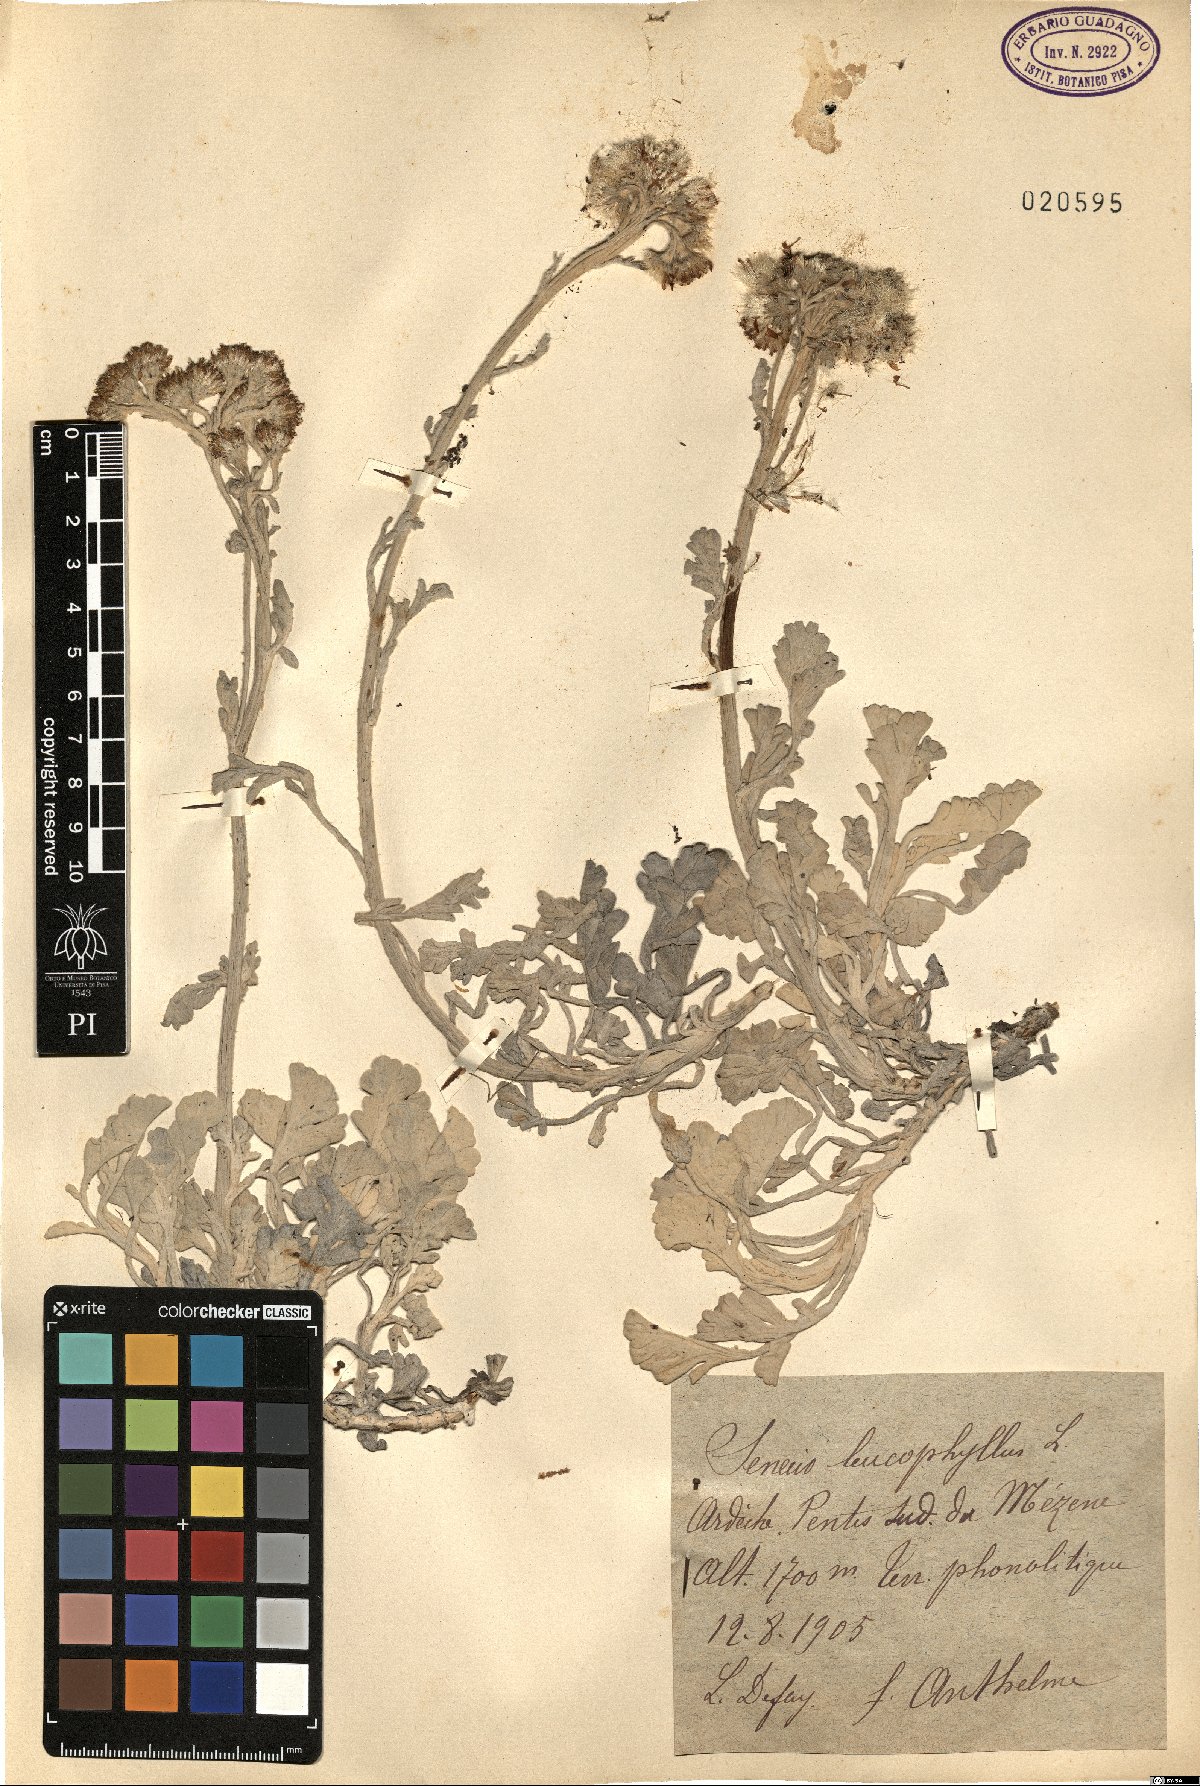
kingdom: Plantae
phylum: Tracheophyta
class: Magnoliopsida
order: Asterales
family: Asteraceae
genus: Jacobaea
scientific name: Jacobaea leucophylla
